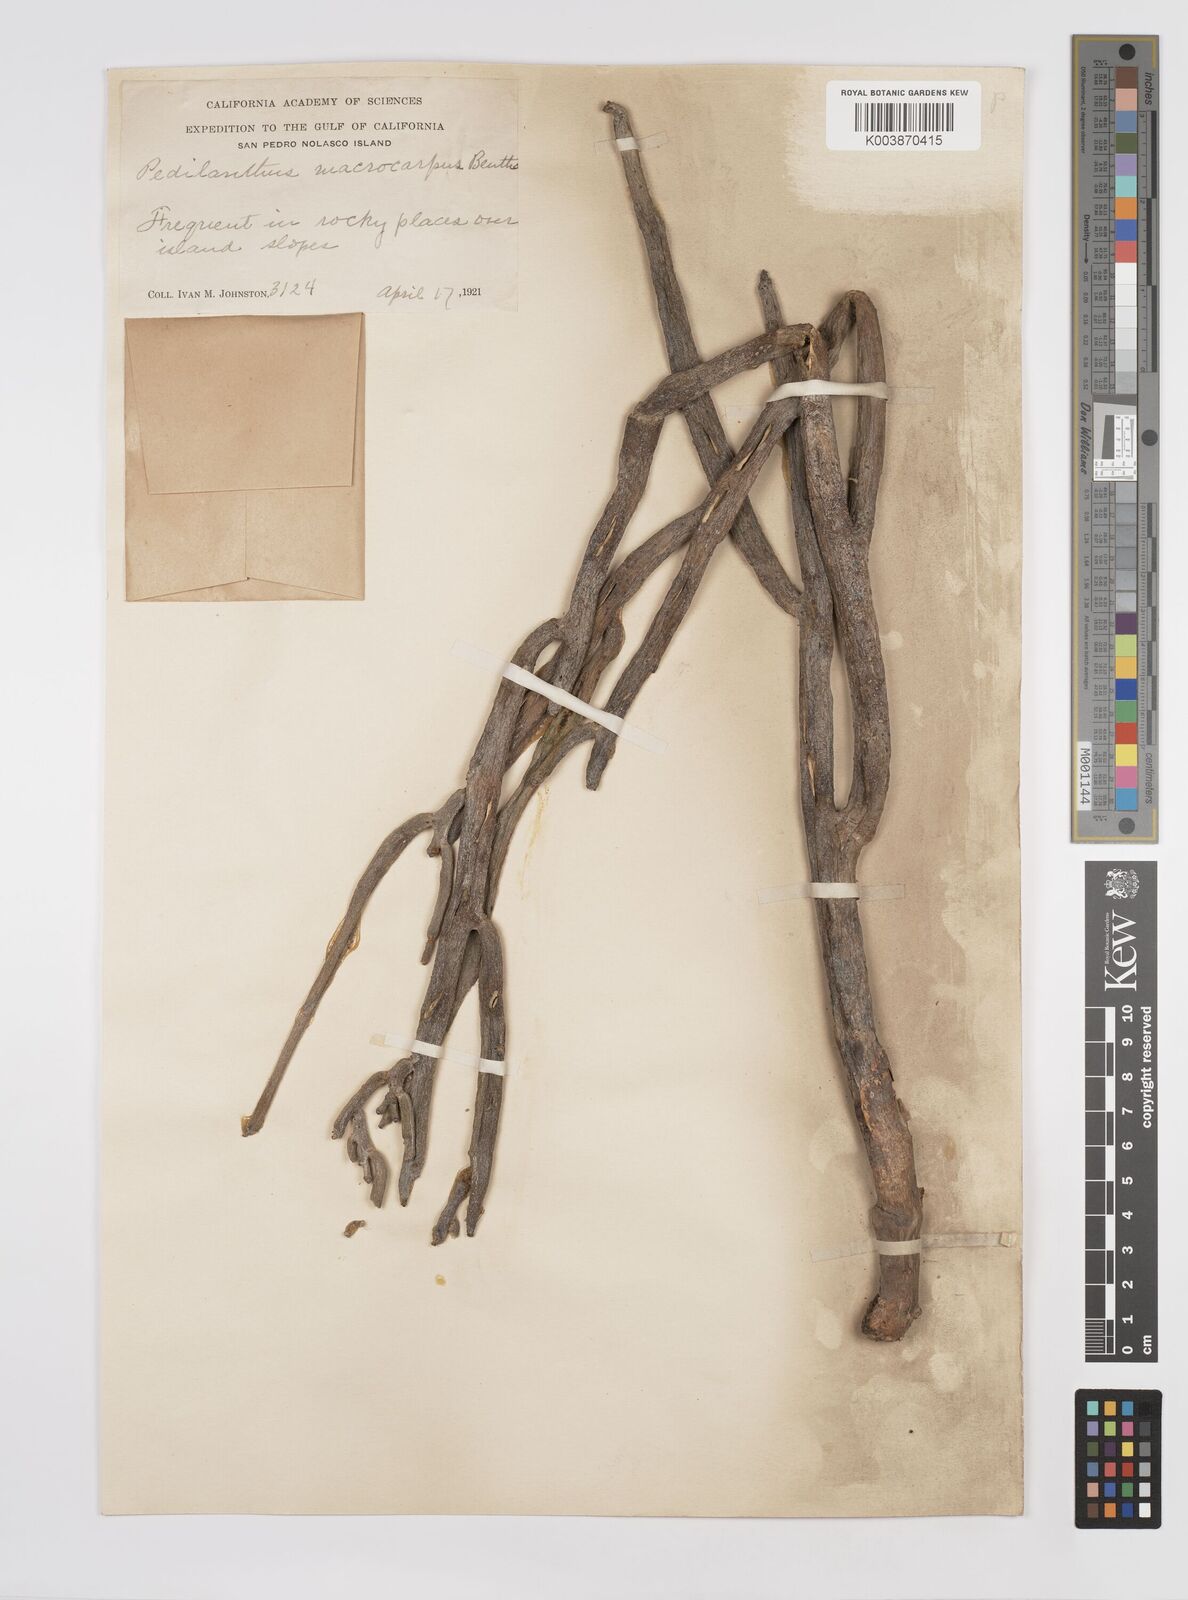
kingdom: Plantae
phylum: Tracheophyta
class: Magnoliopsida
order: Malpighiales
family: Euphorbiaceae
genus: Euphorbia
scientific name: Euphorbia lomelii
